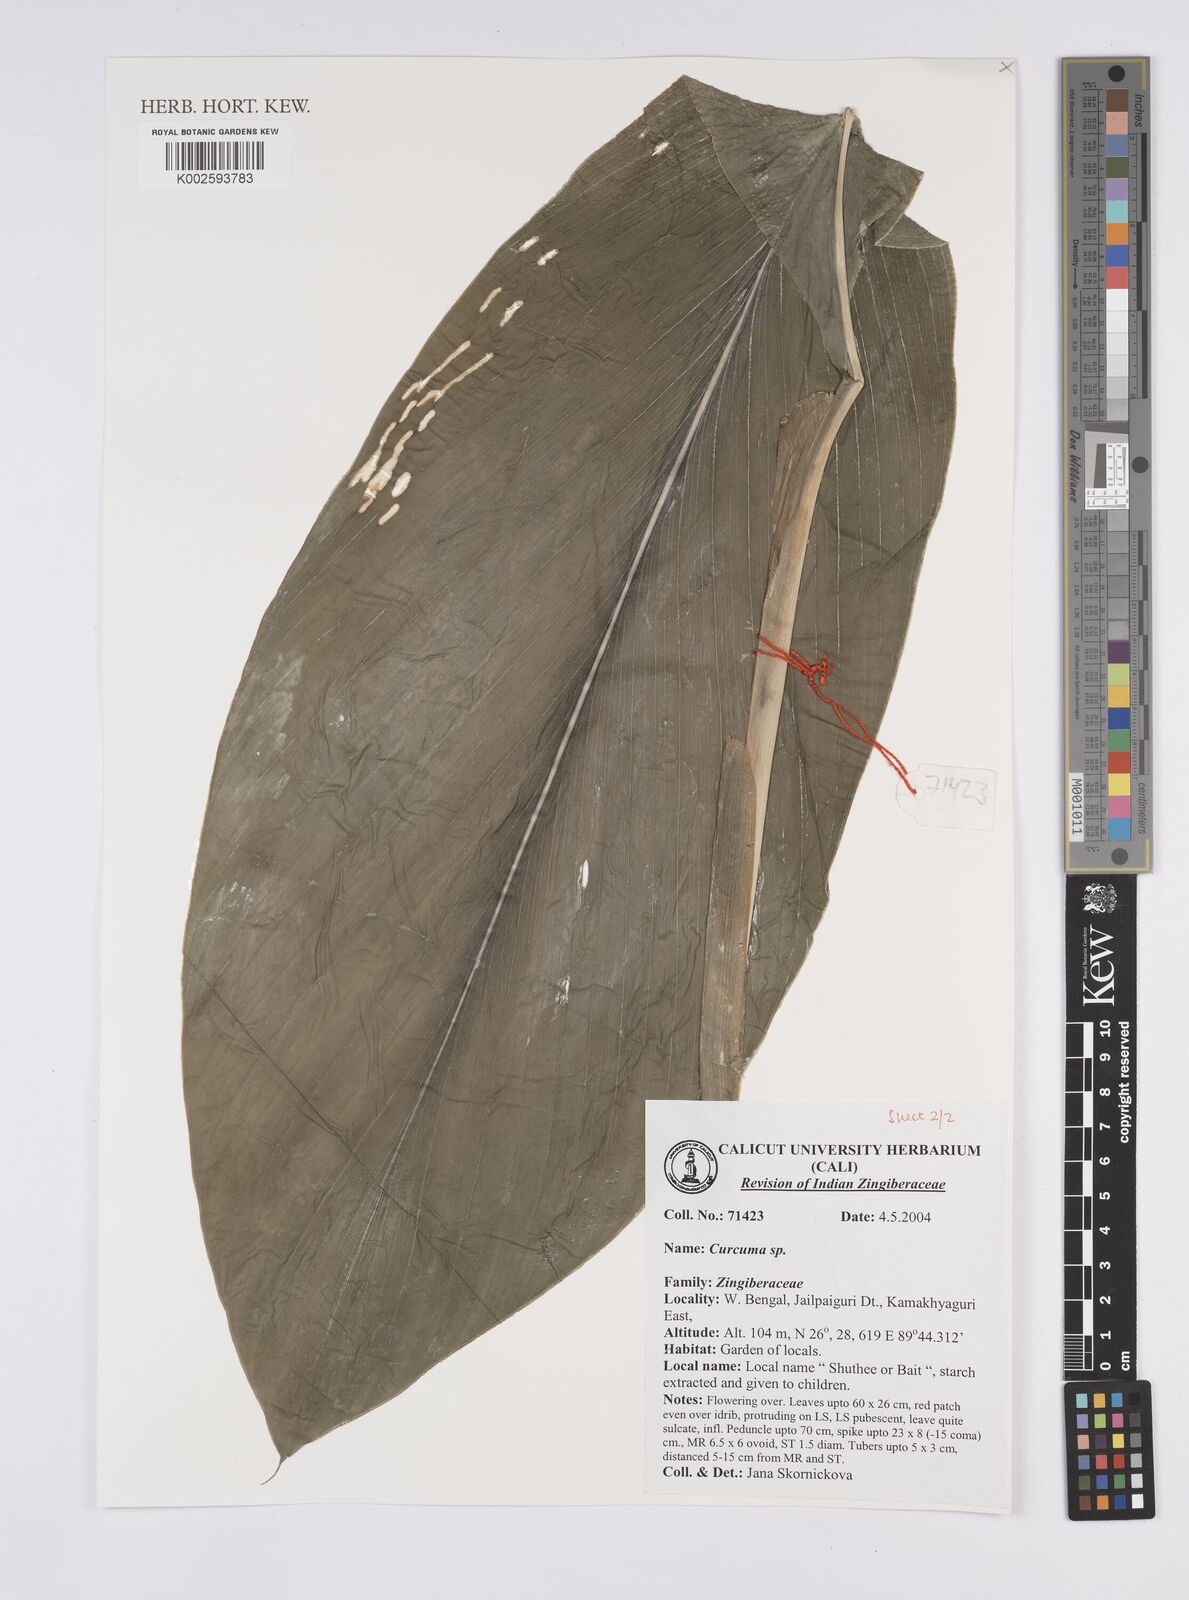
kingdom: Plantae
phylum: Tracheophyta
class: Liliopsida
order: Zingiberales
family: Zingiberaceae
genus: Curcuma
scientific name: Curcuma
